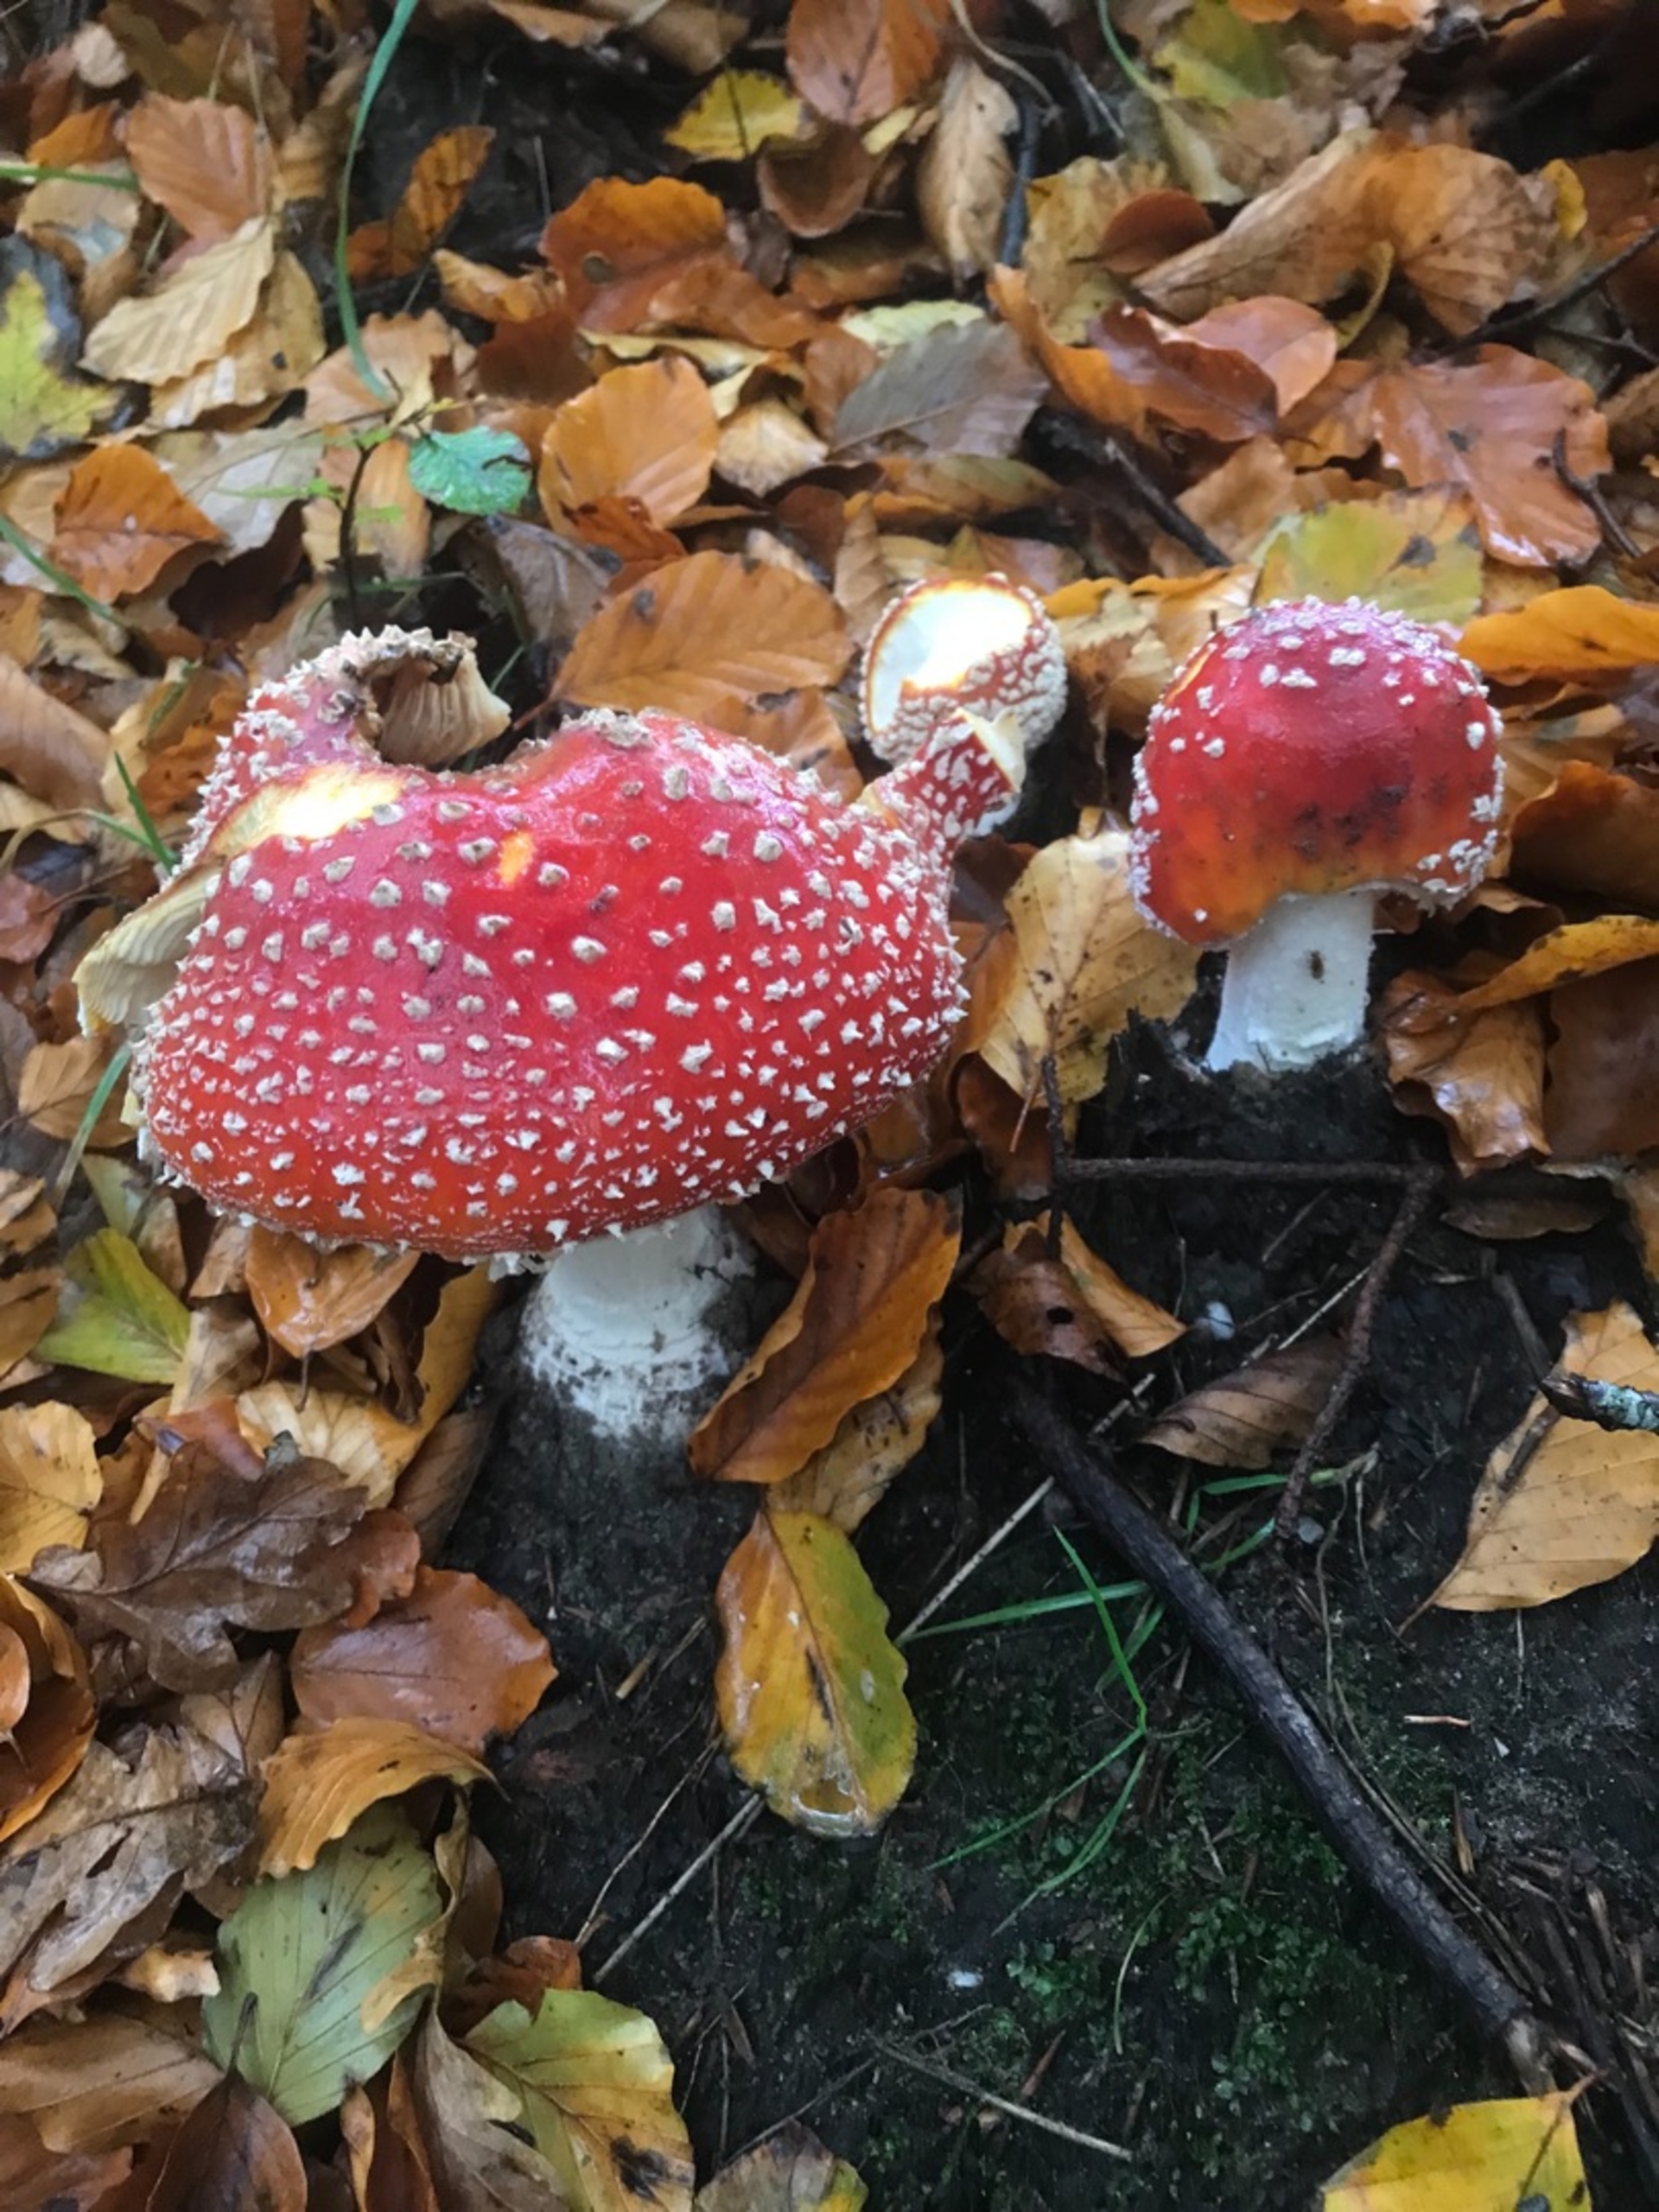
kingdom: Fungi
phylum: Basidiomycota
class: Agaricomycetes
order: Agaricales
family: Amanitaceae
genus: Amanita
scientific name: Amanita muscaria
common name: Rød fluesvamp
